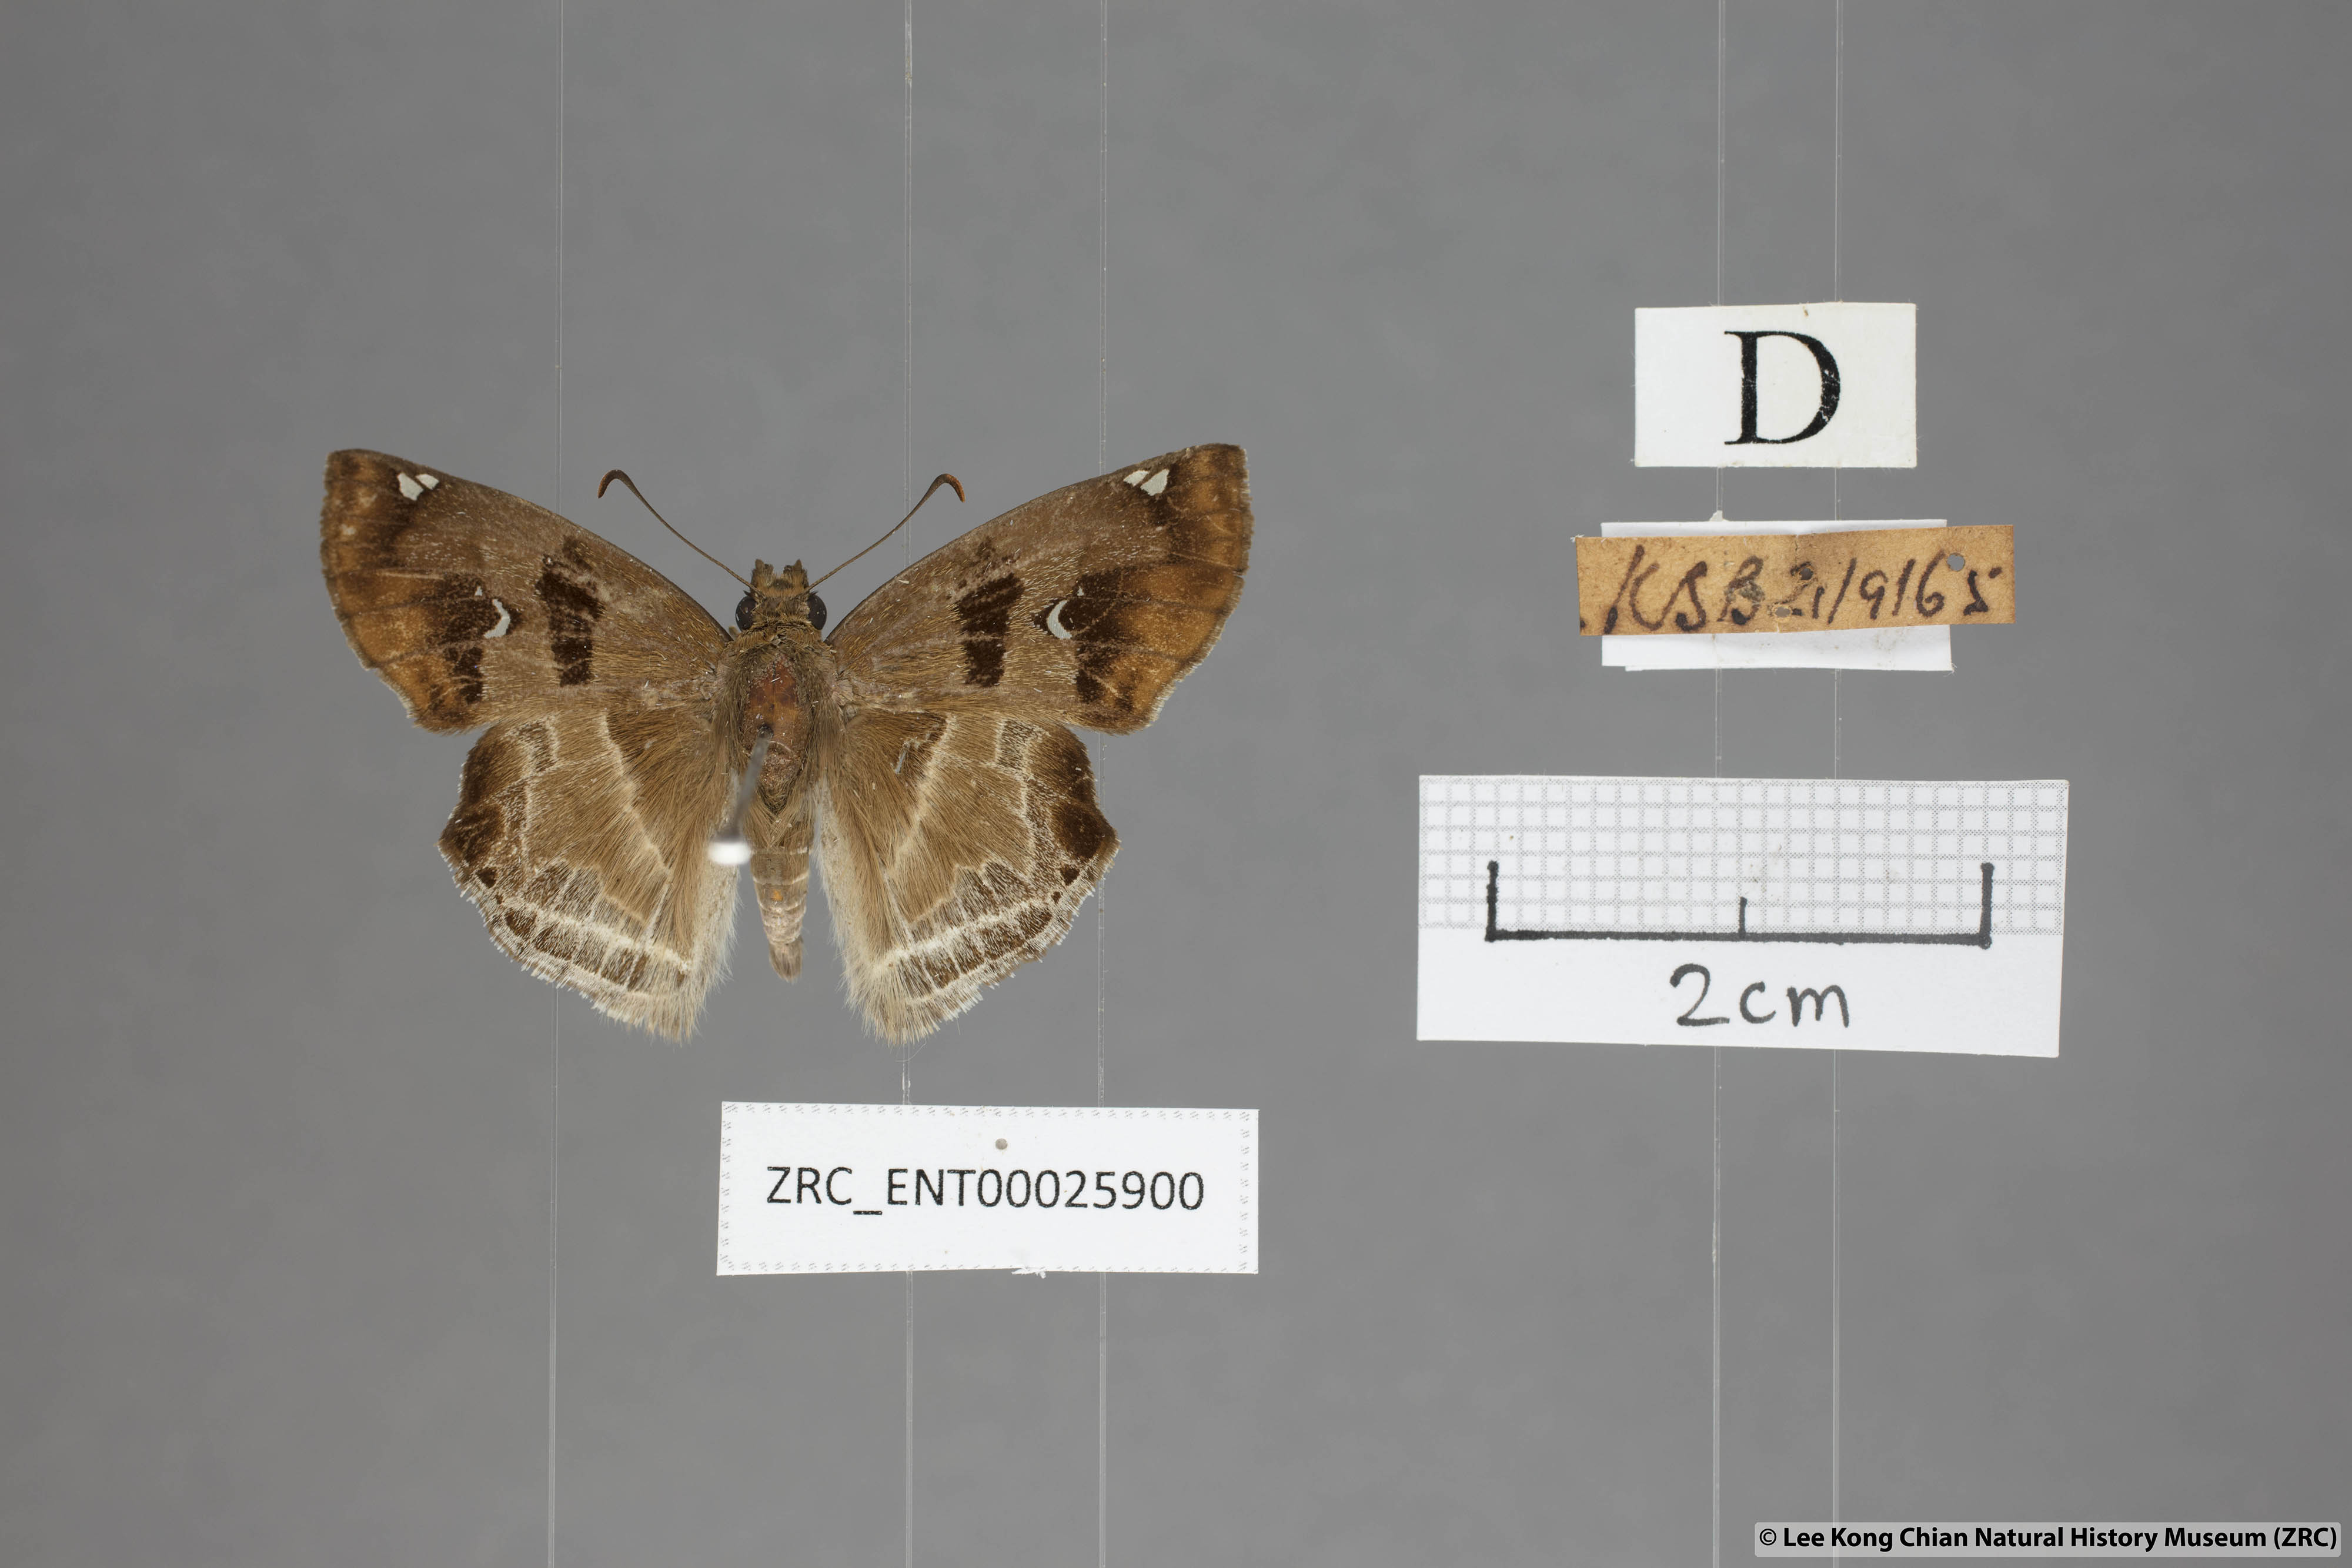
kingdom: Animalia
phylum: Arthropoda
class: Insecta
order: Lepidoptera
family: Hesperiidae
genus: Odontoptilum
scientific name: Odontoptilum angulata
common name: Chestnut banded angle
